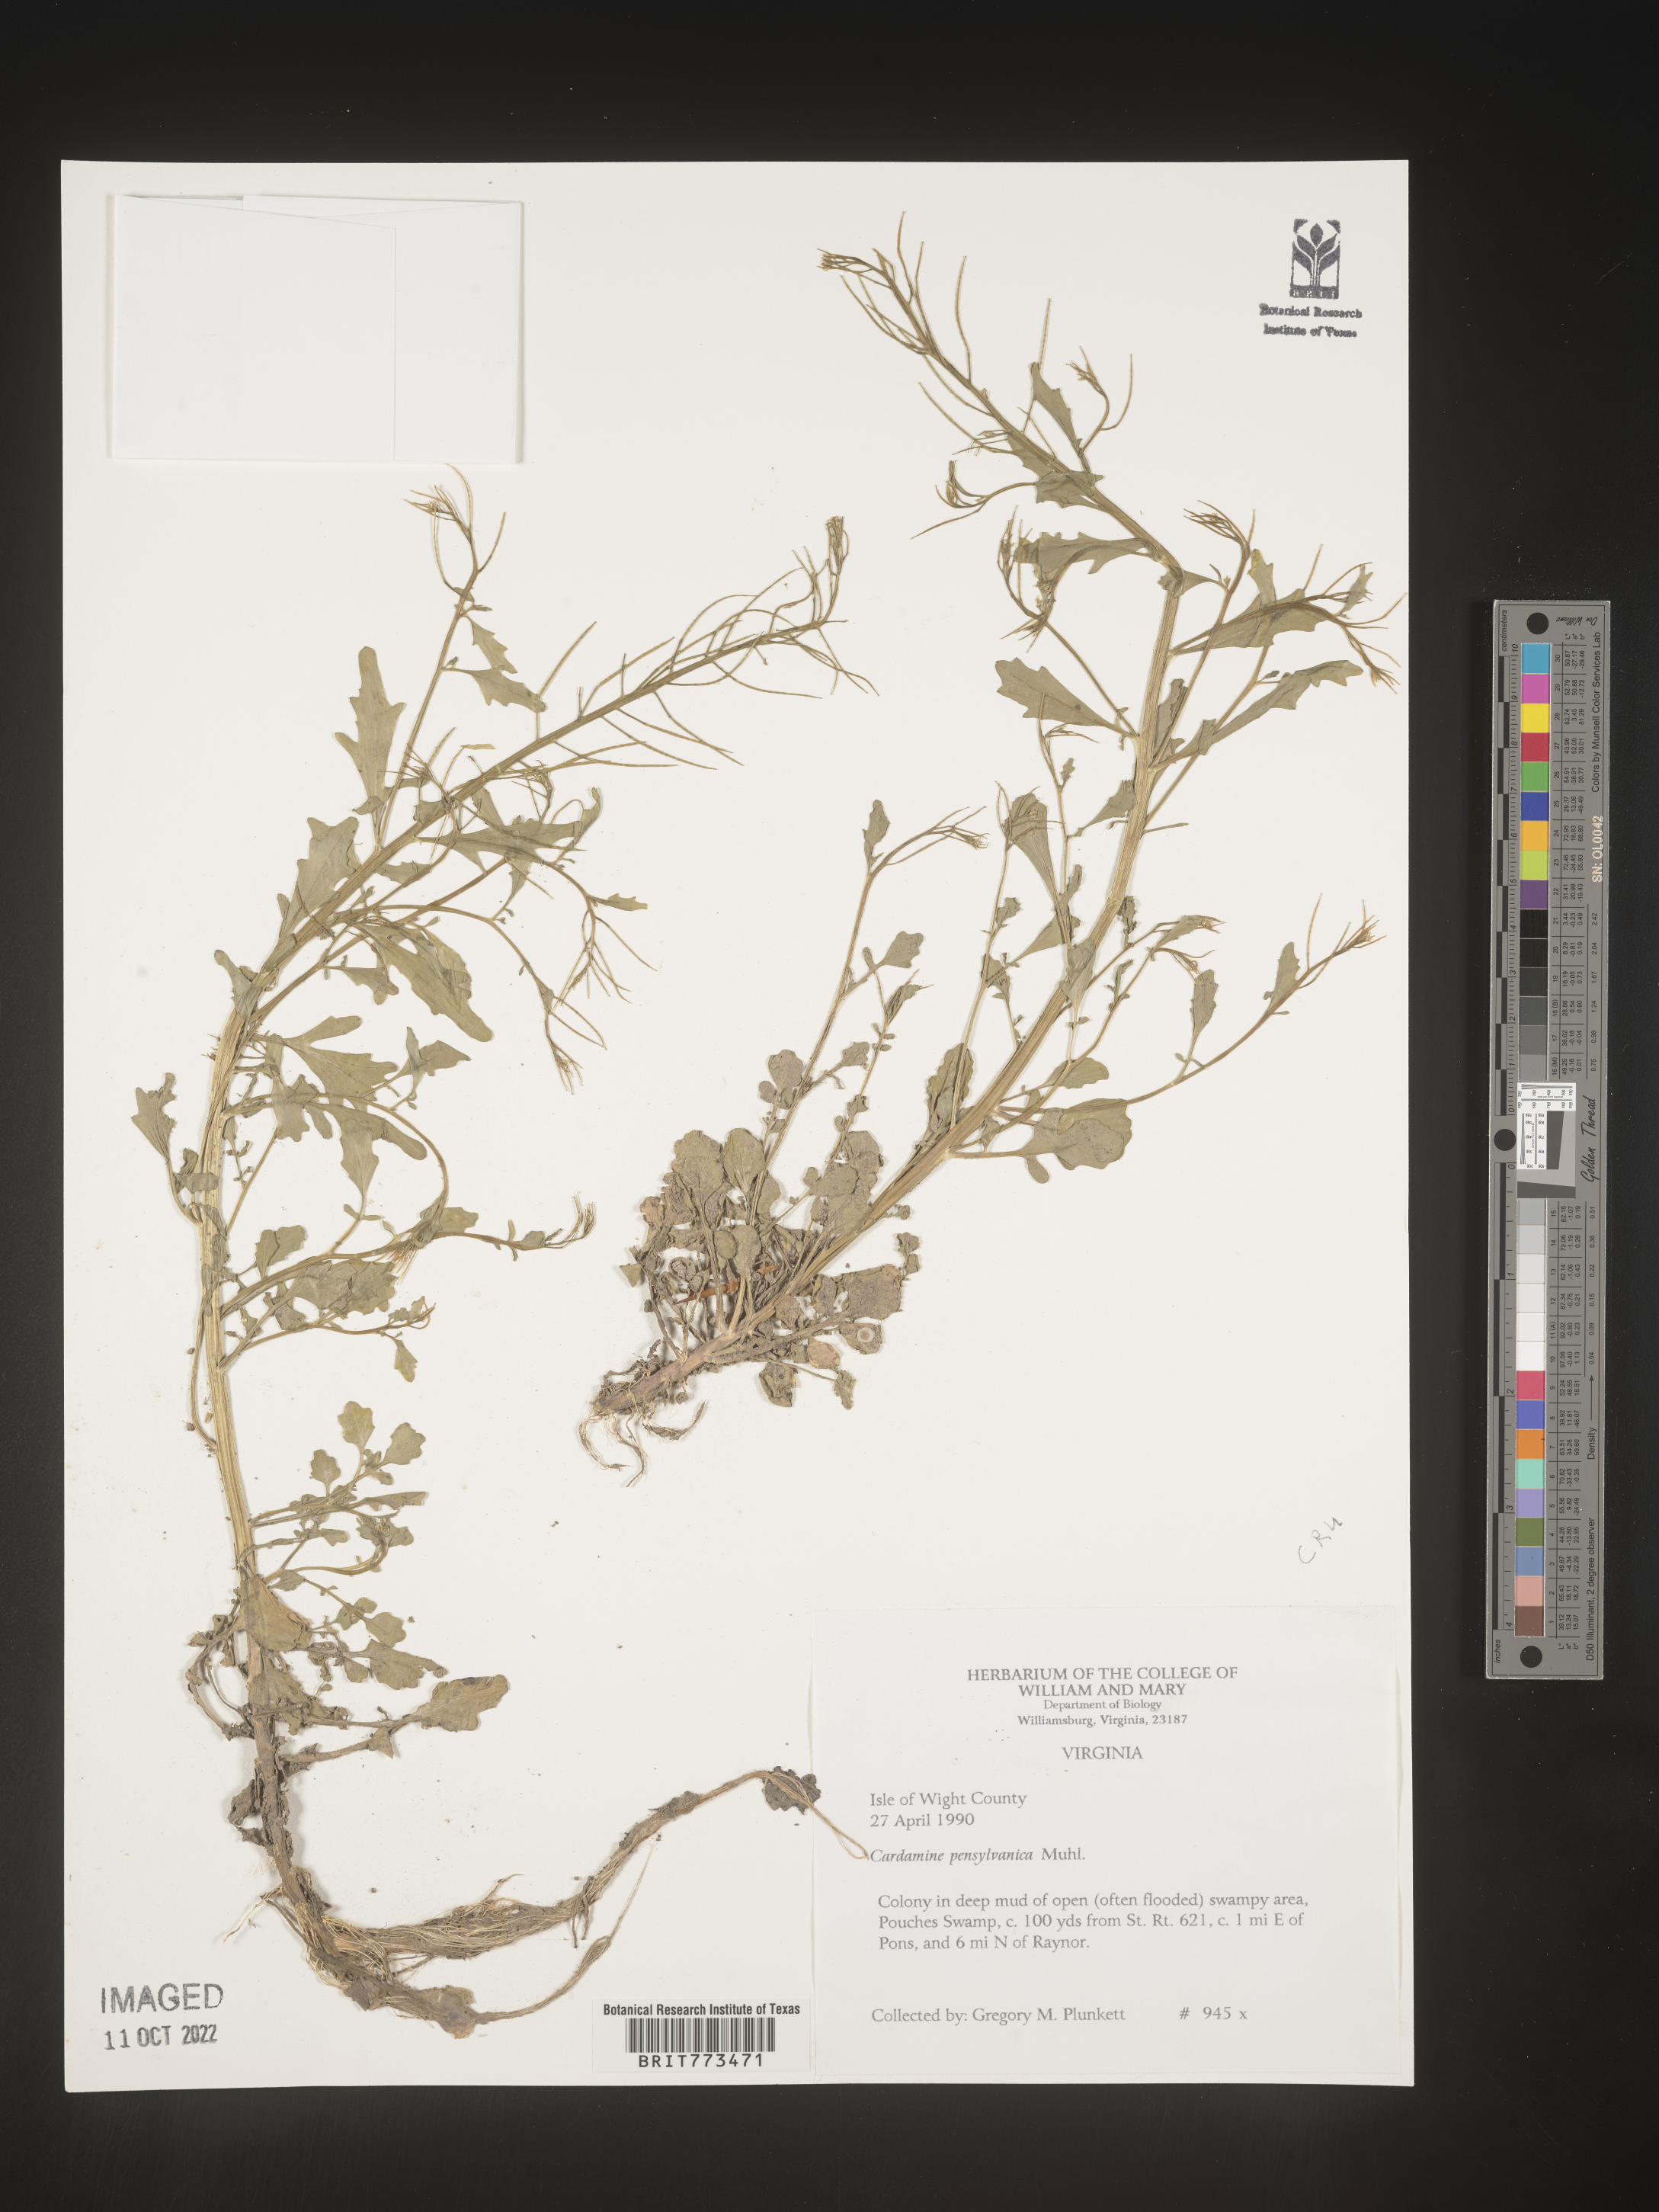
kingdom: Plantae
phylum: Tracheophyta
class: Magnoliopsida
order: Brassicales
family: Brassicaceae
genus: Cardamine
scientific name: Cardamine pensylvanica
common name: Pennsylvania bittercress
